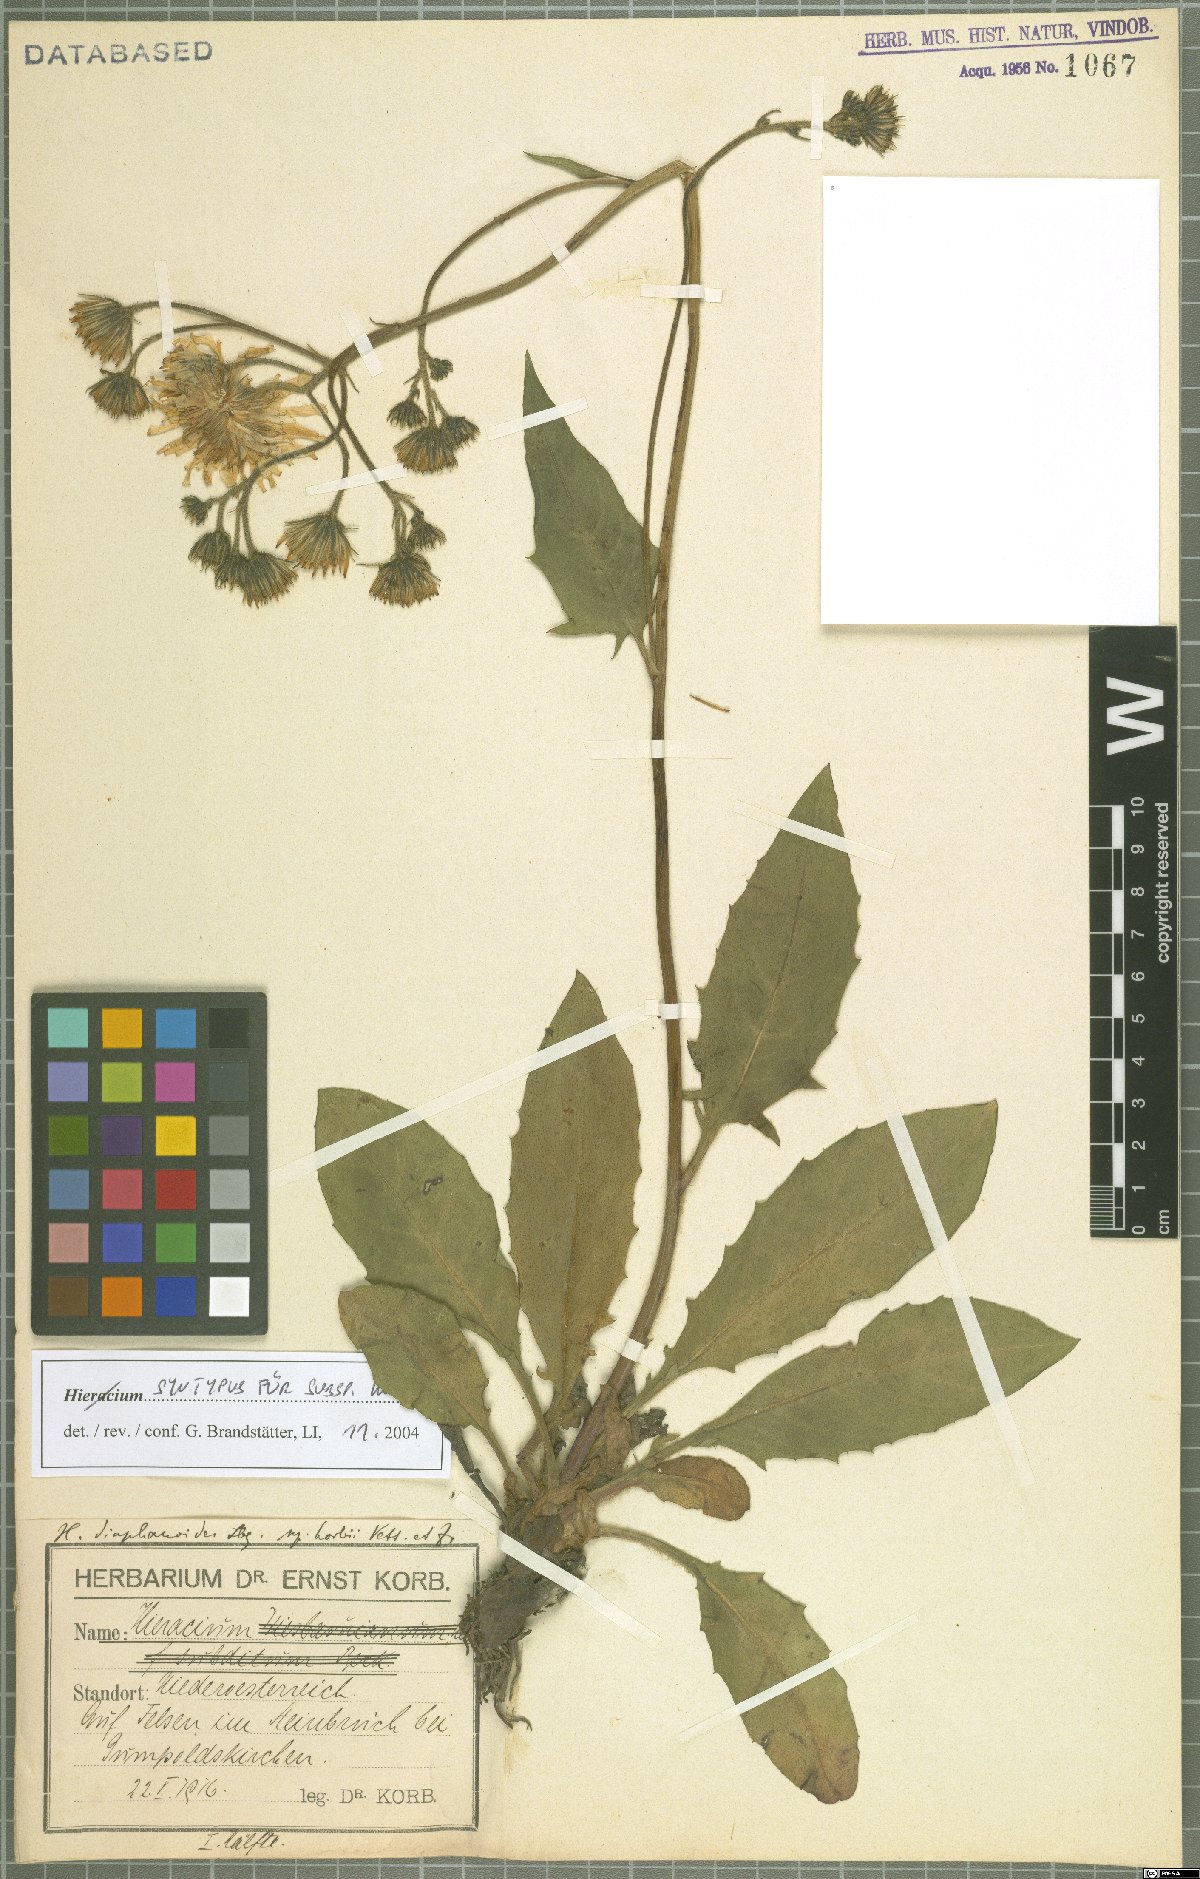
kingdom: Plantae
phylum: Tracheophyta
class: Magnoliopsida
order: Asterales
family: Asteraceae
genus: Hieracium
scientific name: Hieracium diaphanoides
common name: Fine-bracted hawkweed
